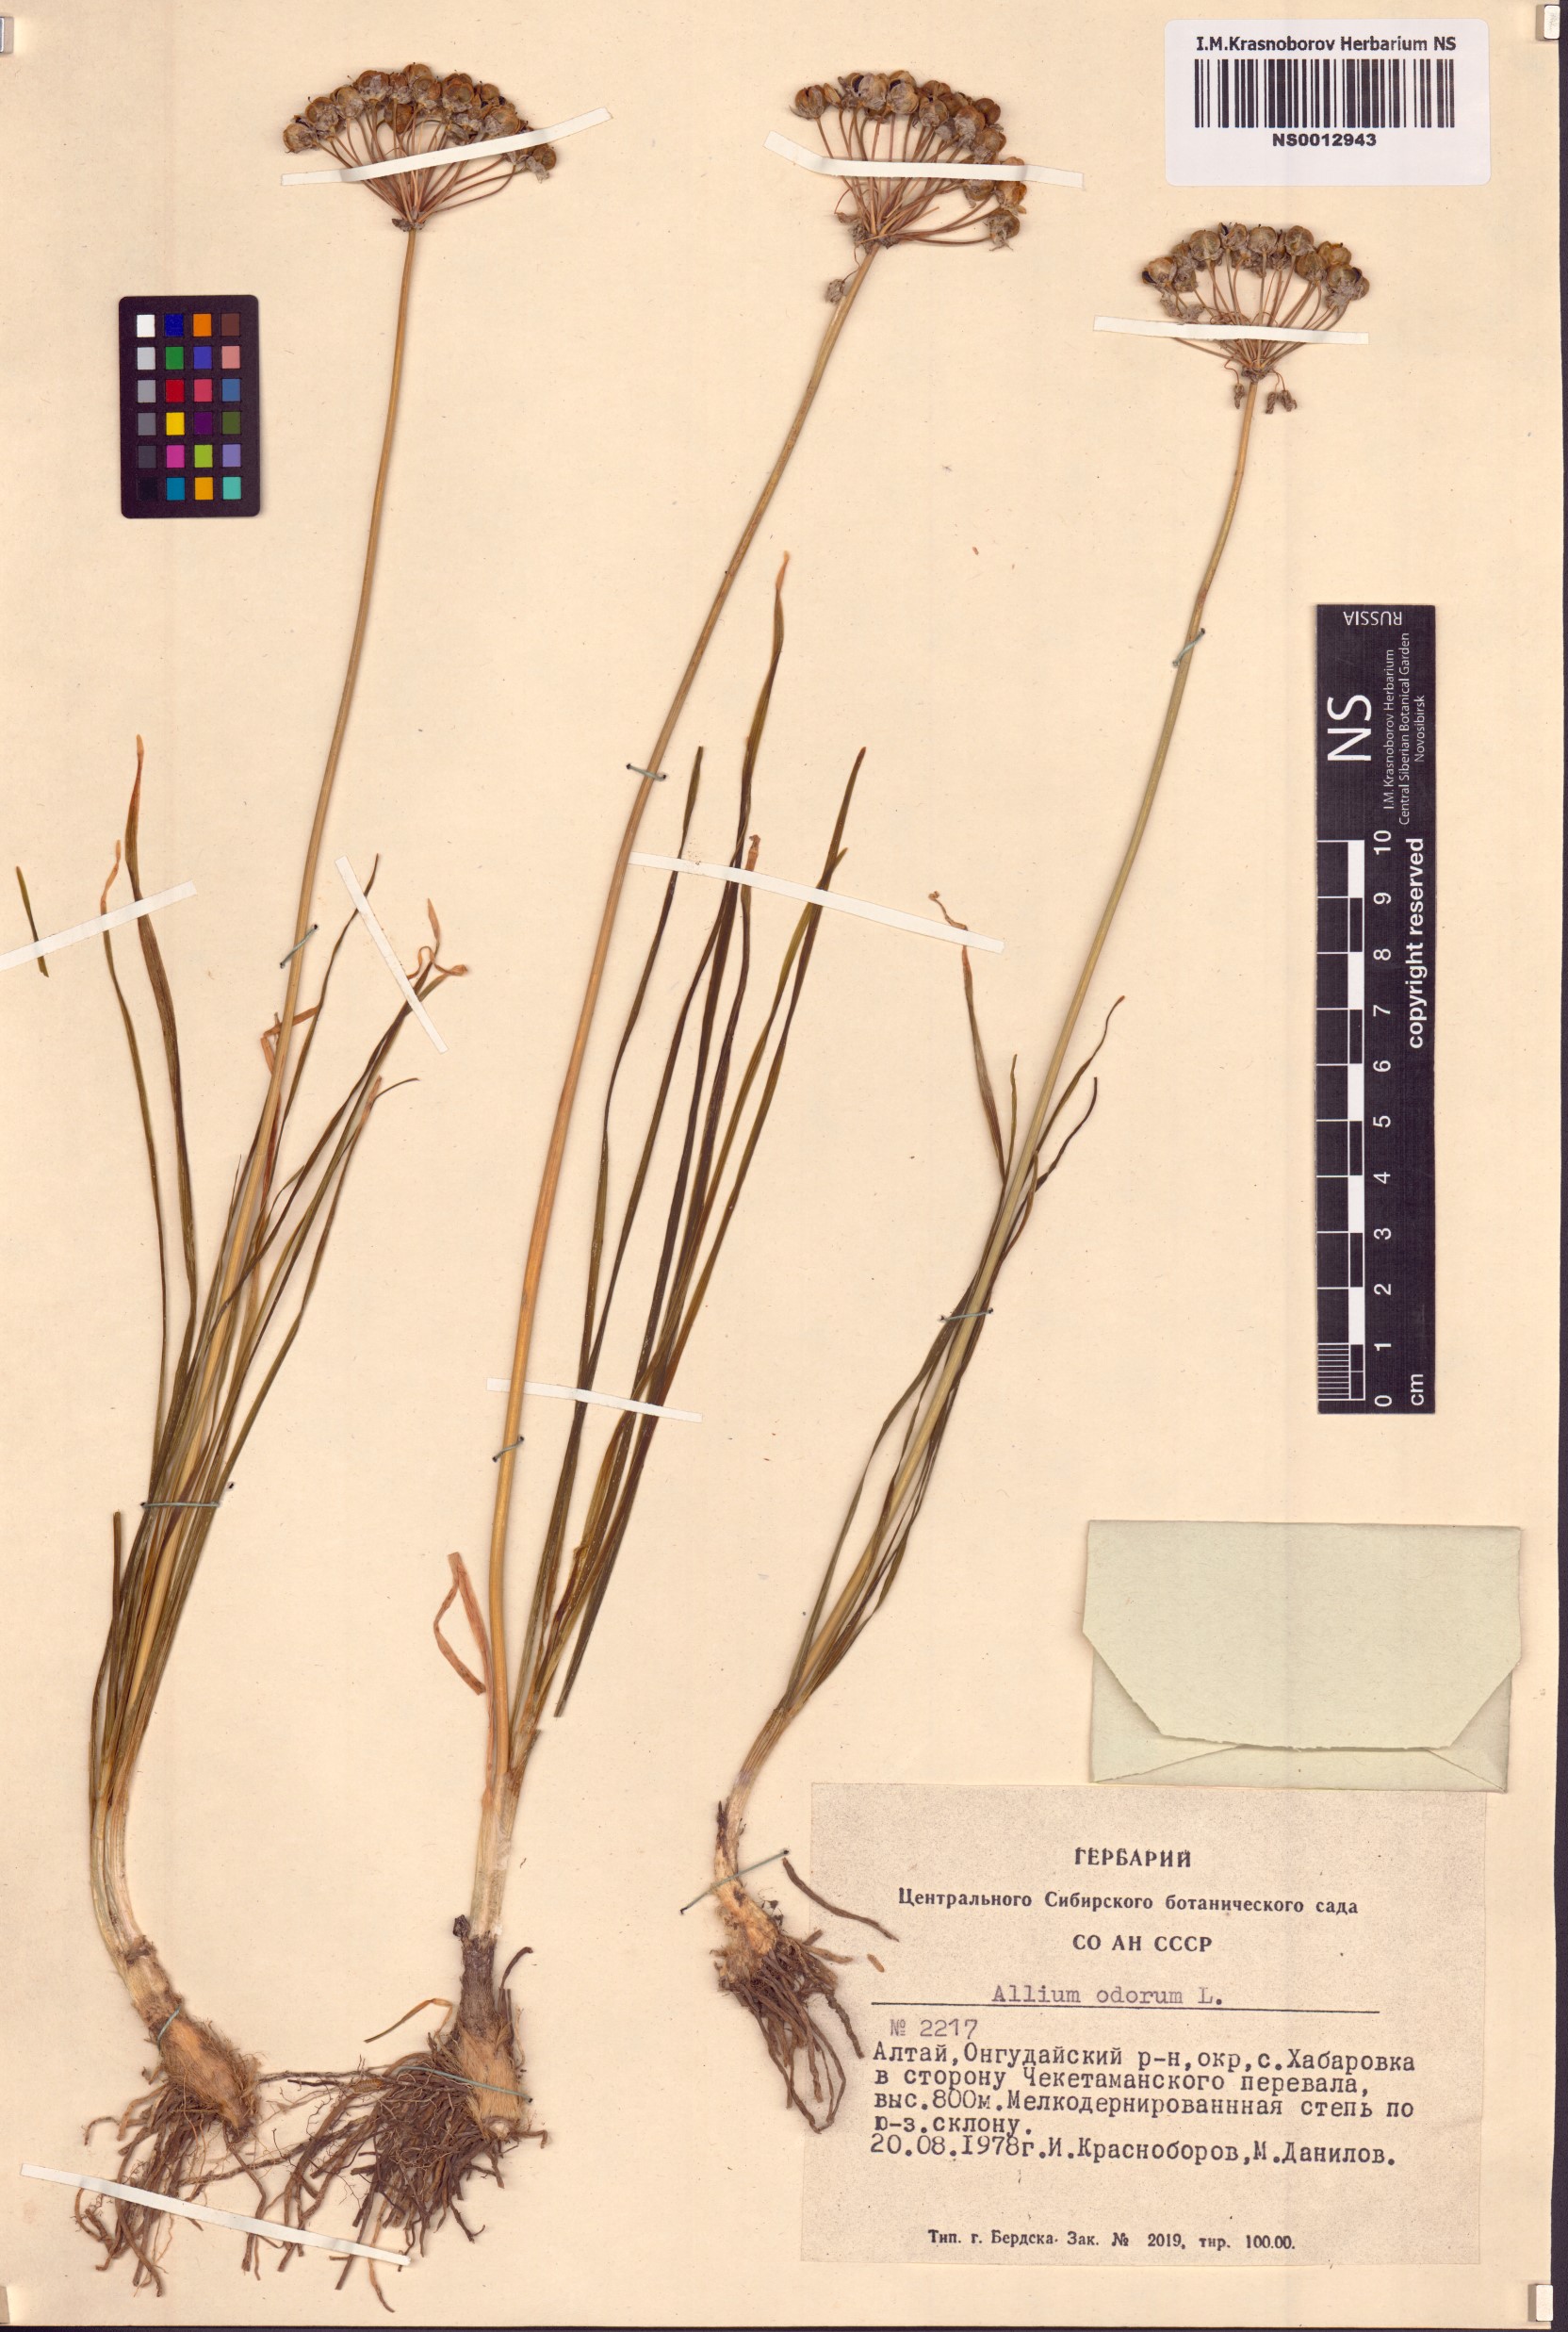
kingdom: Plantae
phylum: Tracheophyta
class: Liliopsida
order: Asparagales
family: Amaryllidaceae
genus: Allium
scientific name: Allium ramosum
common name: Fragrant garlic
